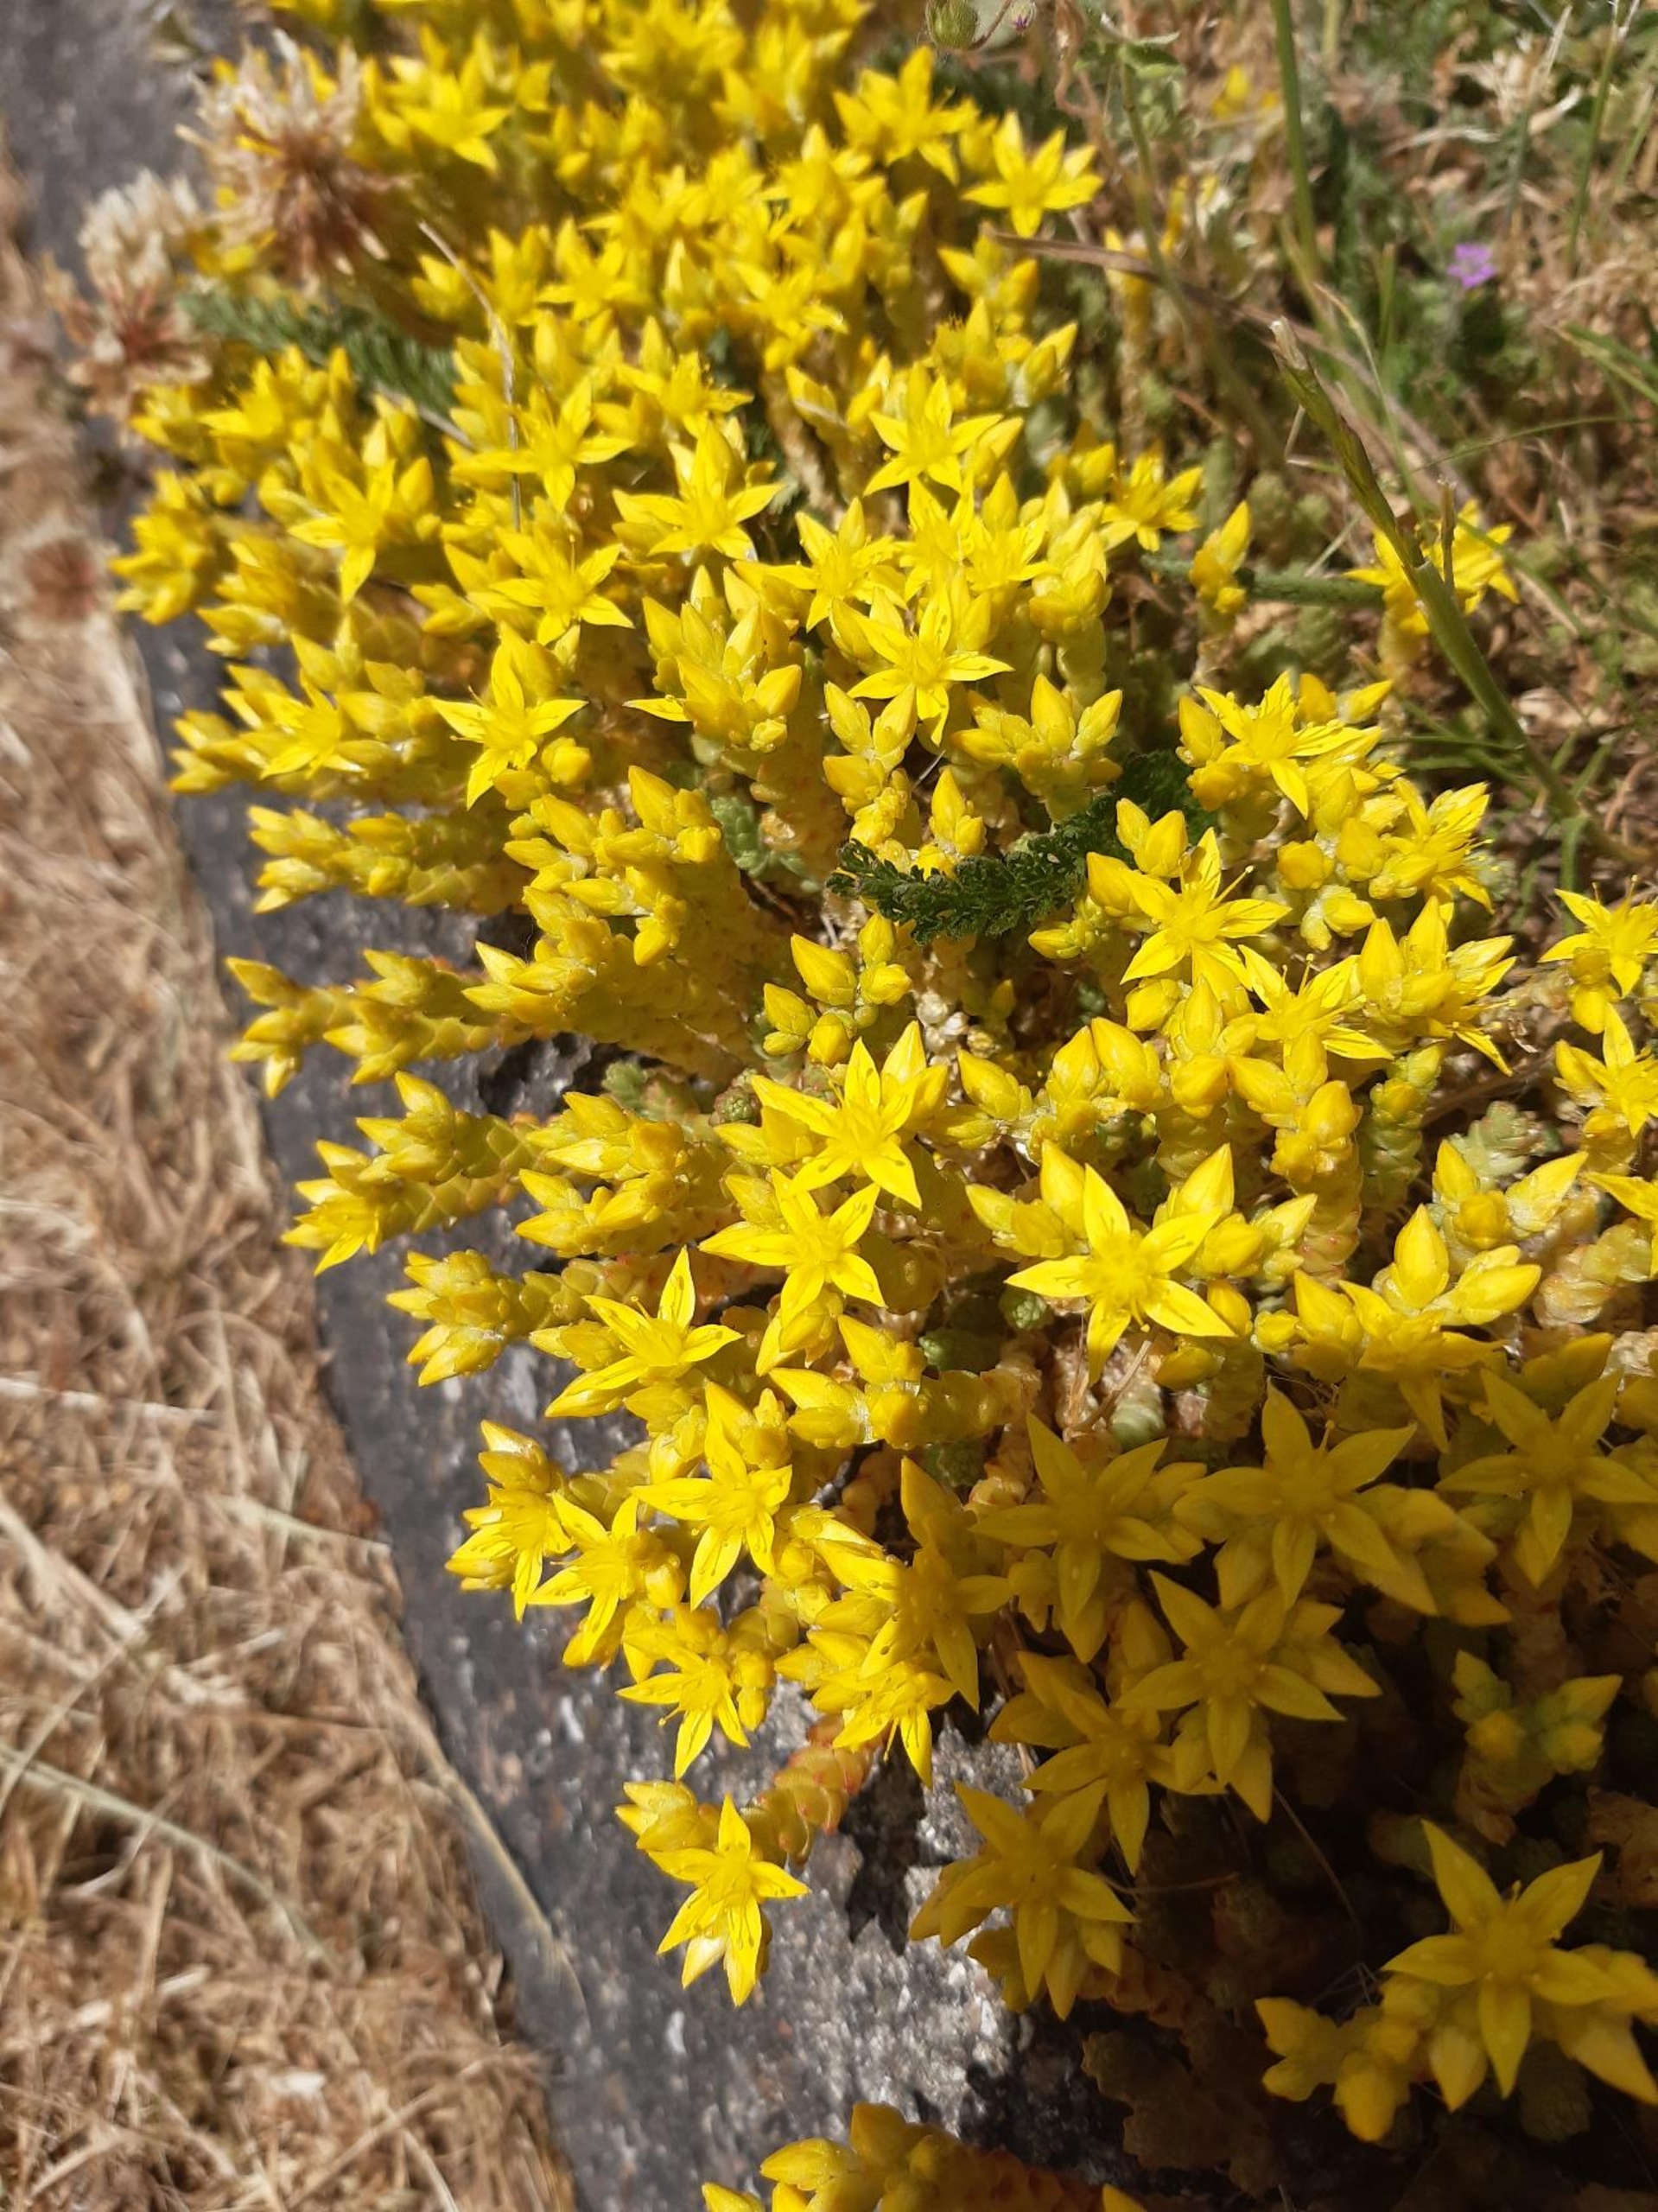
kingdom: Plantae
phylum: Tracheophyta
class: Magnoliopsida
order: Saxifragales
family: Crassulaceae
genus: Sedum
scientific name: Sedum acre
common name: Bidende stenurt
